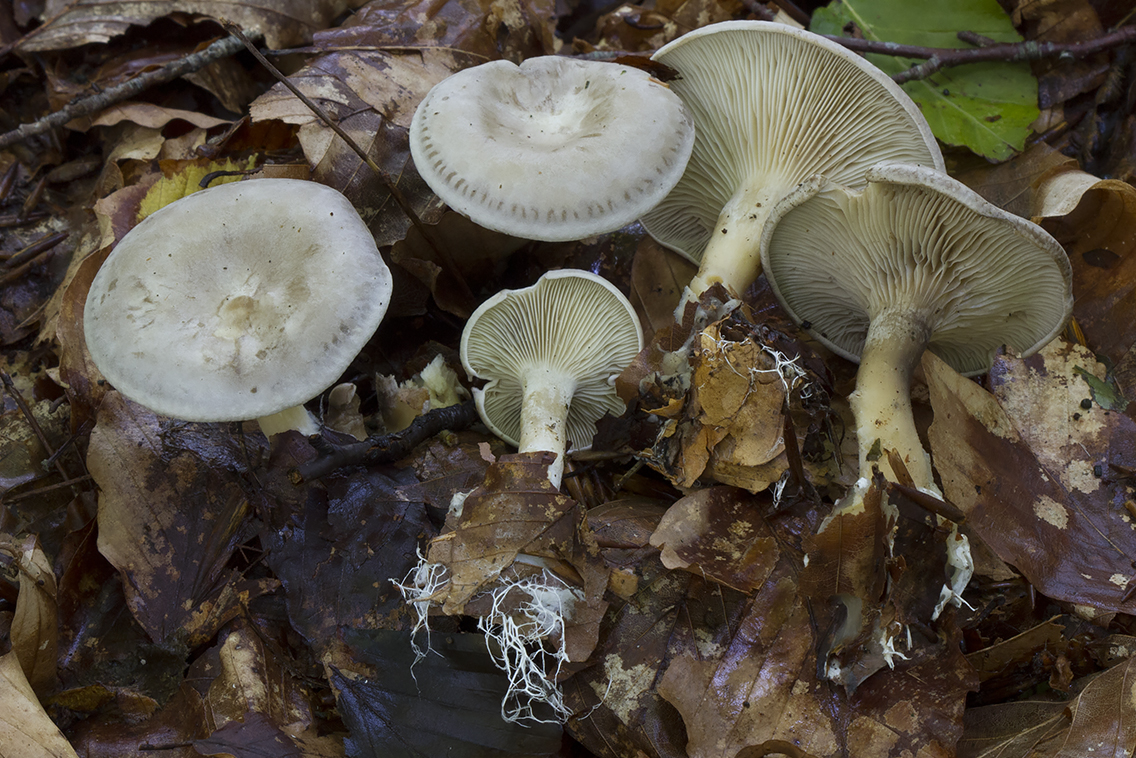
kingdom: Fungi
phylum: Basidiomycota
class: Agaricomycetes
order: Agaricales
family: Tricholomataceae
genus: Lulesia
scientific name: Lulesia
